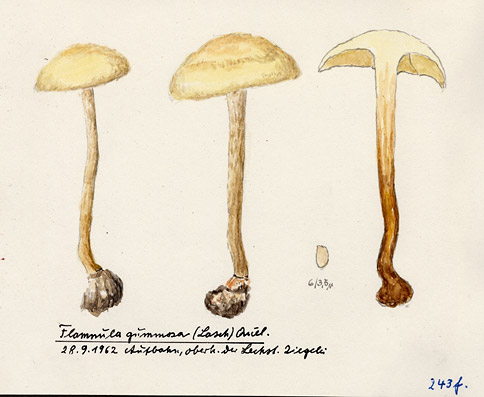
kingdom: Fungi
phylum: Basidiomycota
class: Agaricomycetes
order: Agaricales
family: Strophariaceae
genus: Pholiota
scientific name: Pholiota gummosa
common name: Sticky scalycap
